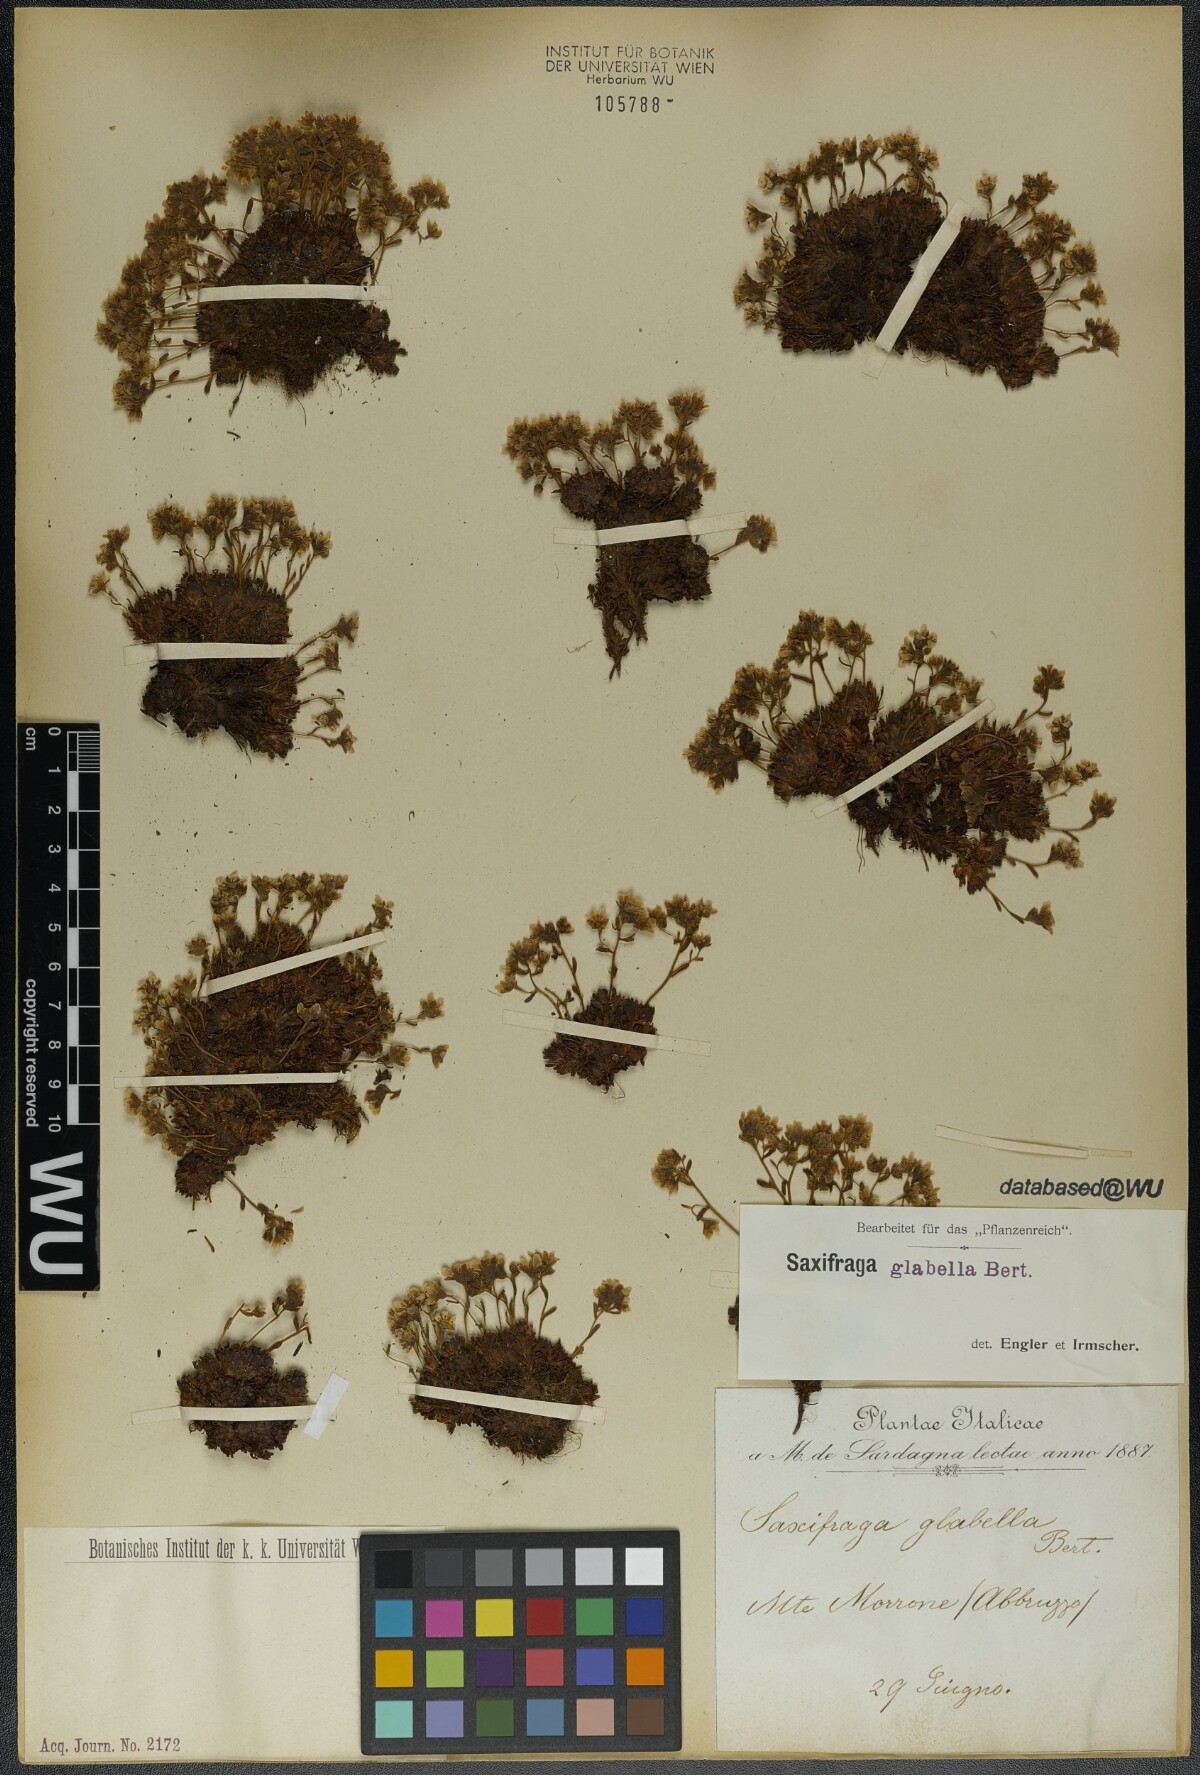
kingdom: Plantae
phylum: Tracheophyta
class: Magnoliopsida
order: Saxifragales
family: Saxifragaceae
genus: Saxifraga
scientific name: Saxifraga glabella
